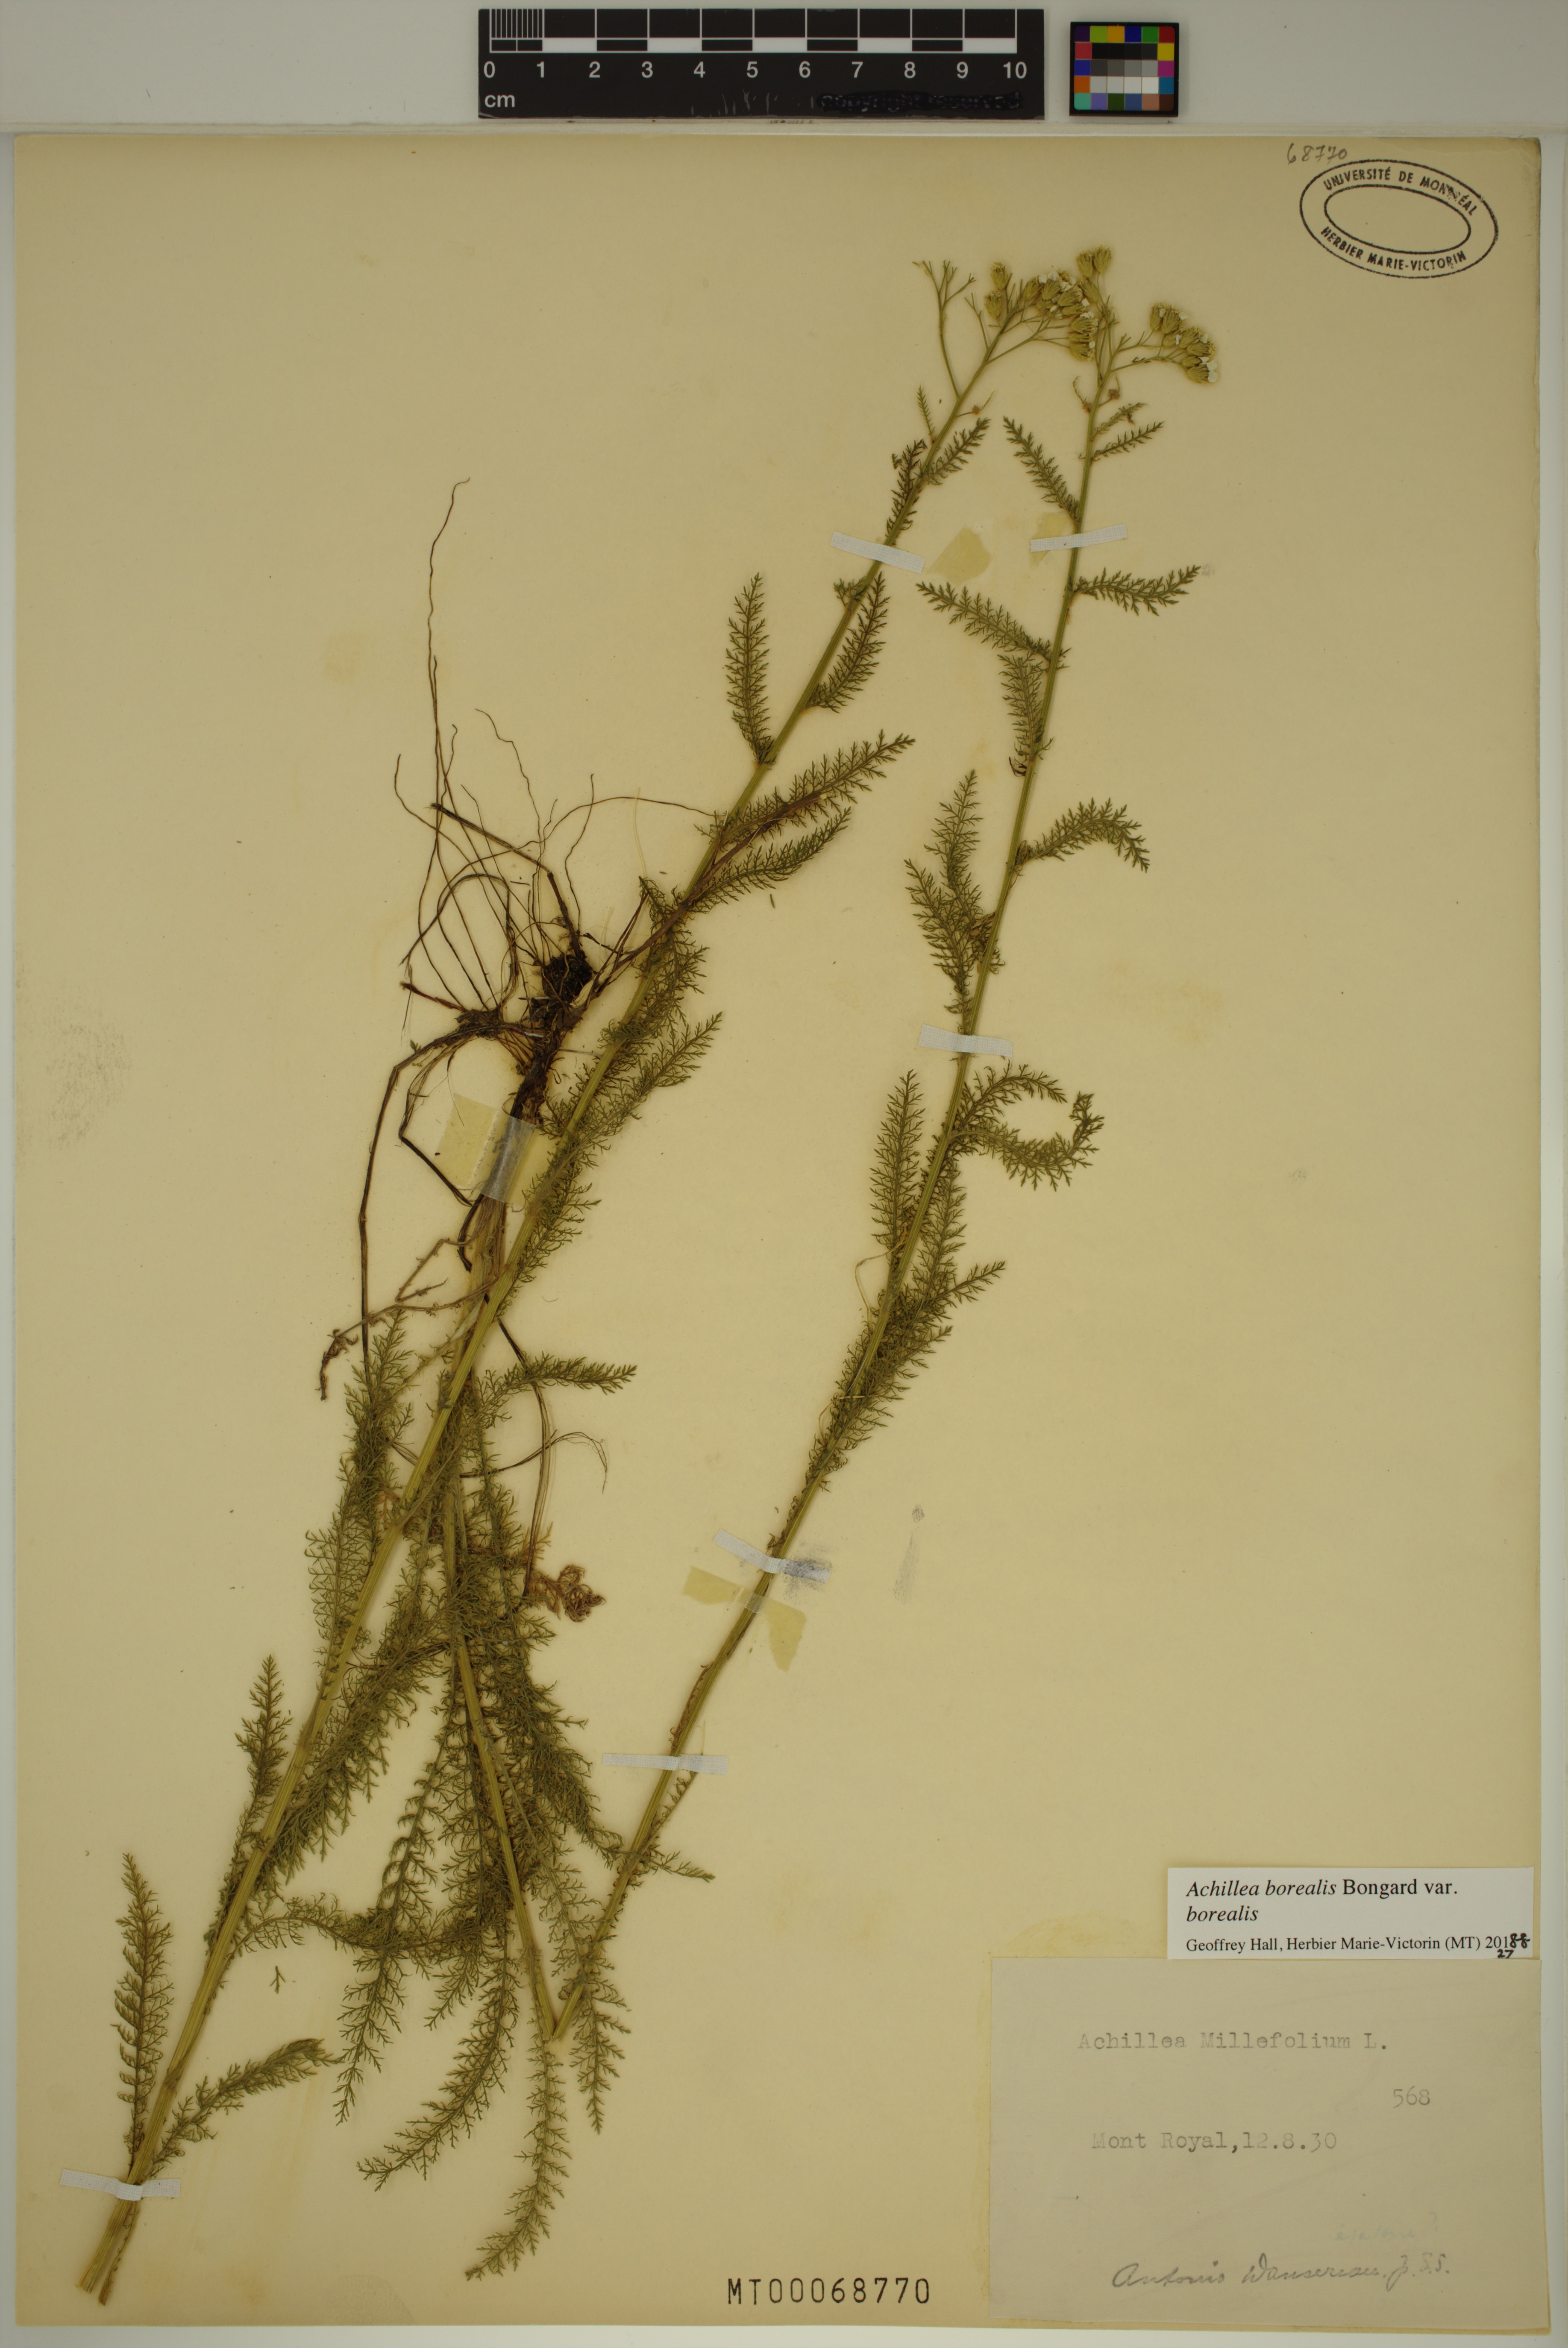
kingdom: Plantae
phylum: Tracheophyta
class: Magnoliopsida
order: Asterales
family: Asteraceae
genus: Achillea
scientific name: Achillea millefolium
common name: Yarrow
